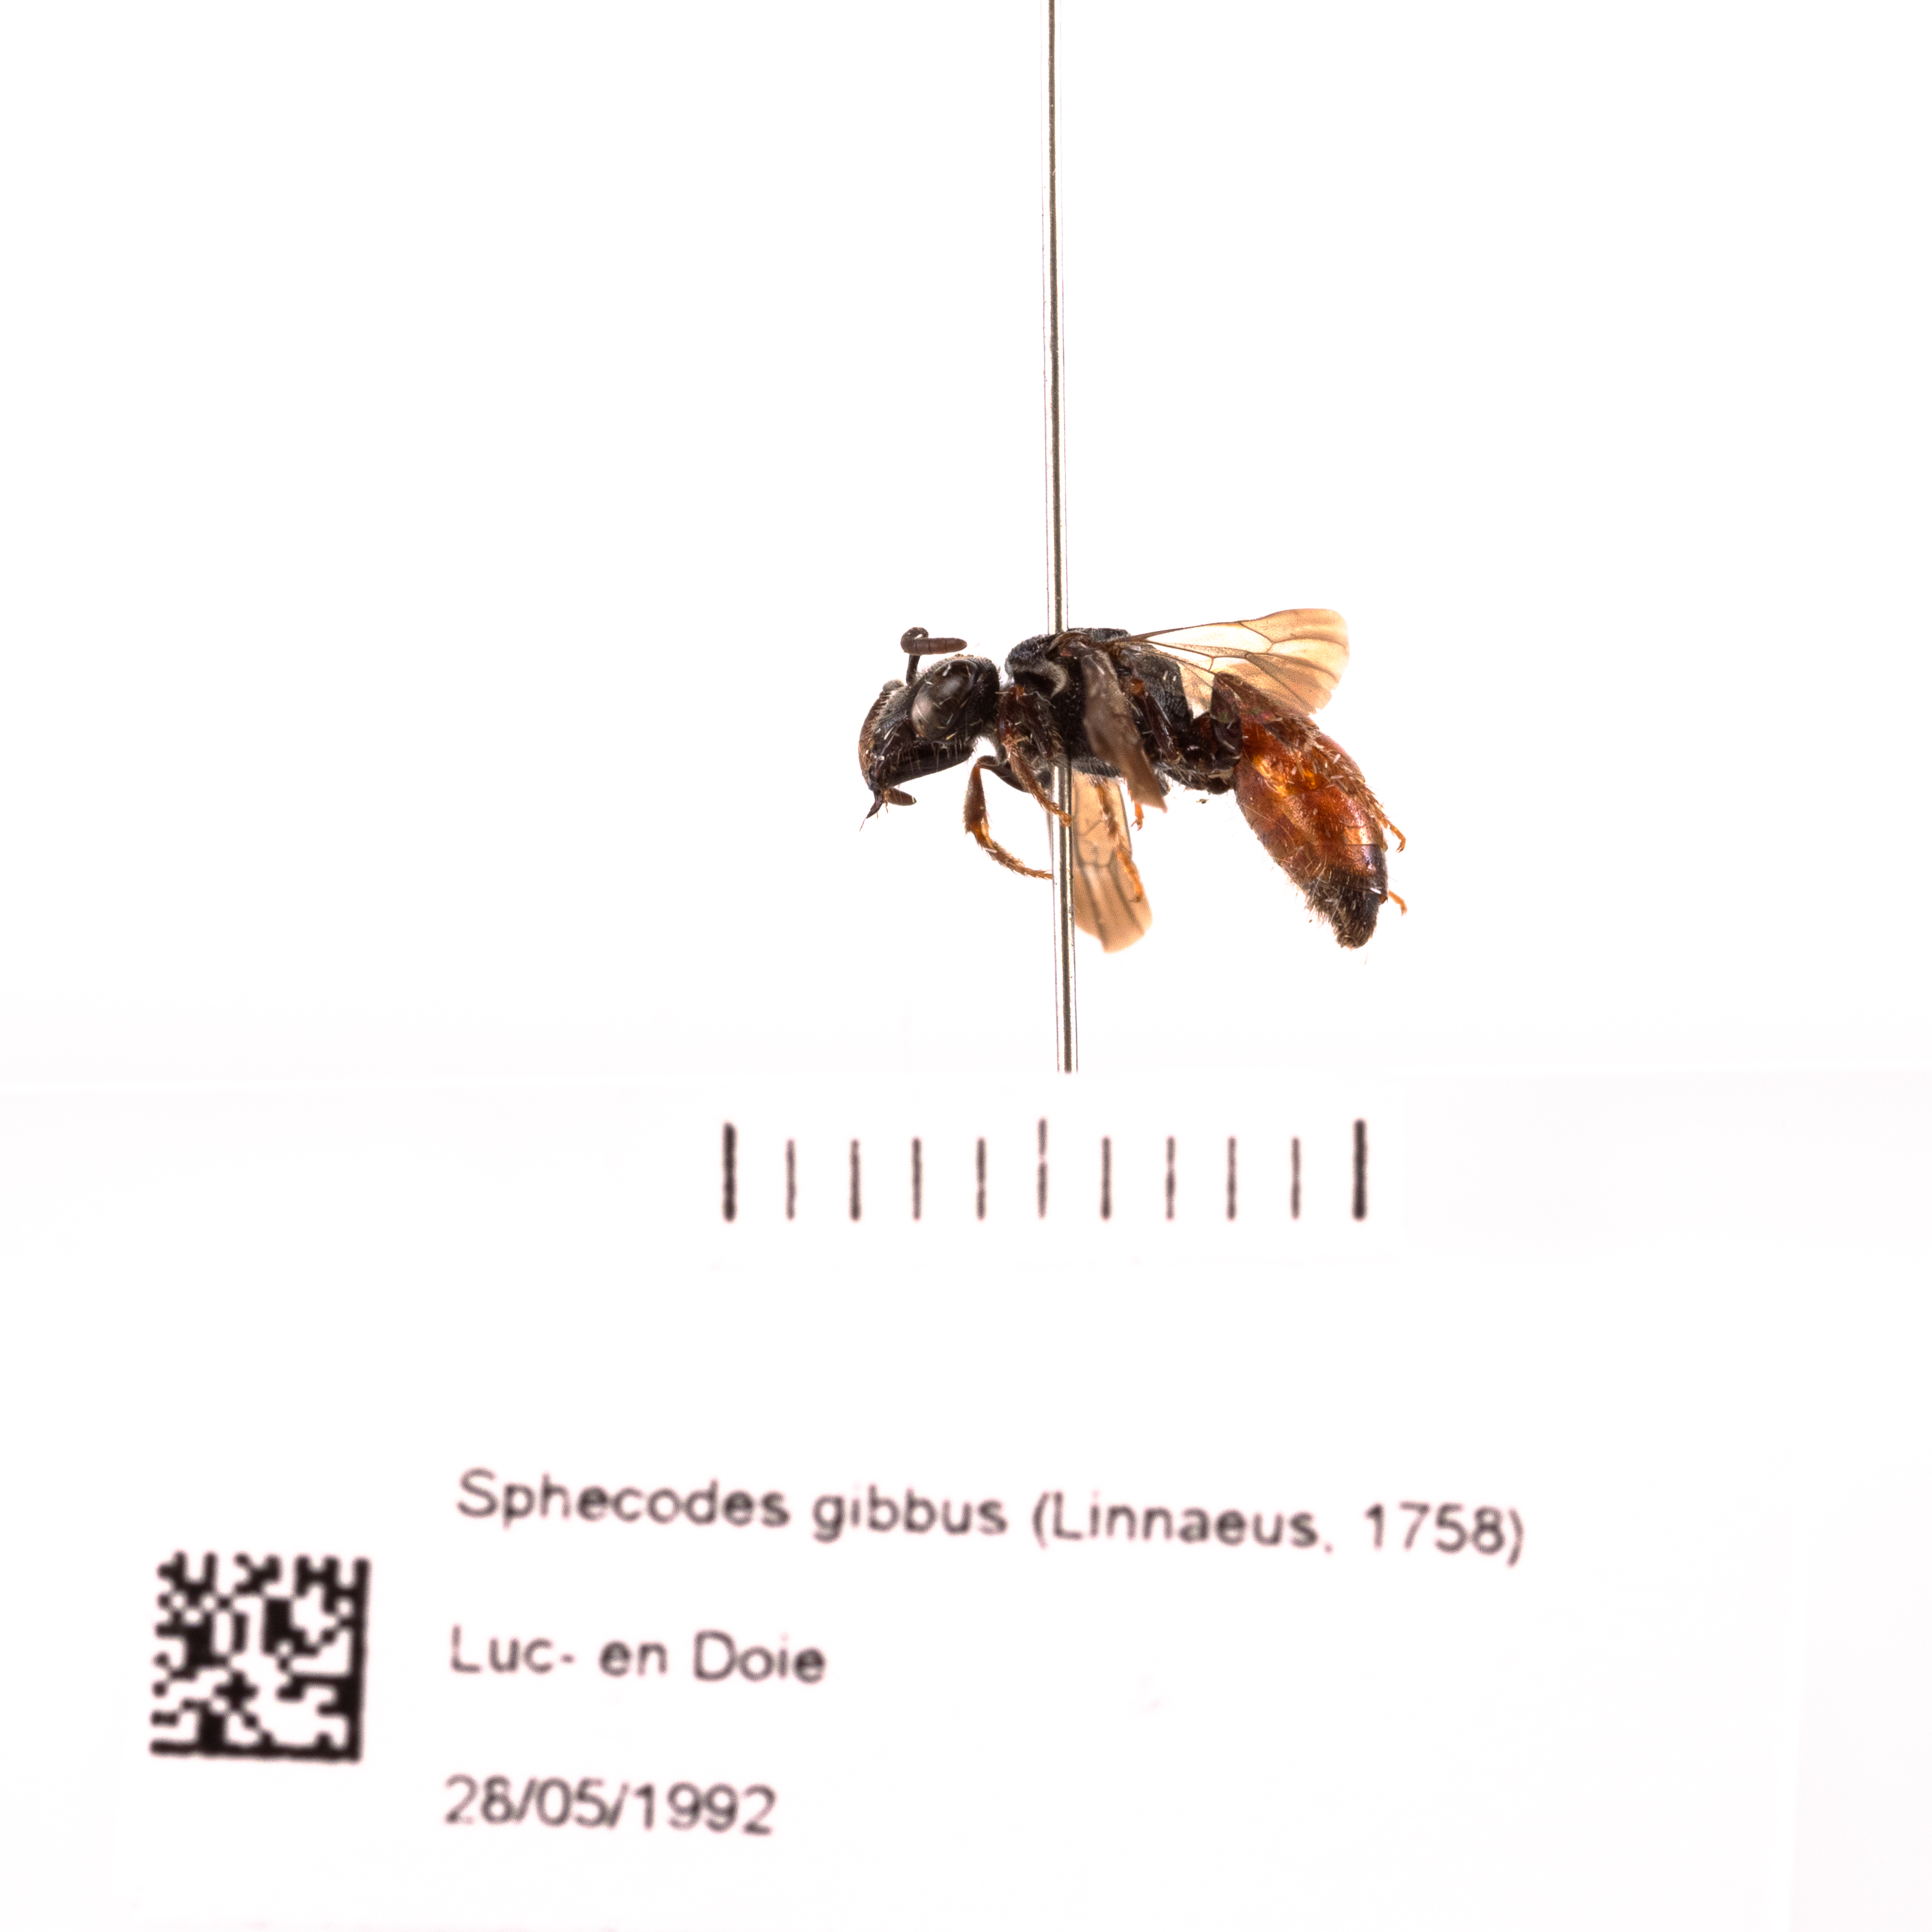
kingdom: Animalia
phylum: Arthropoda
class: Insecta
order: Hymenoptera
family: Halictidae
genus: Sphecodes
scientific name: Sphecodes gibbus
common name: Dark-winged blood bee
